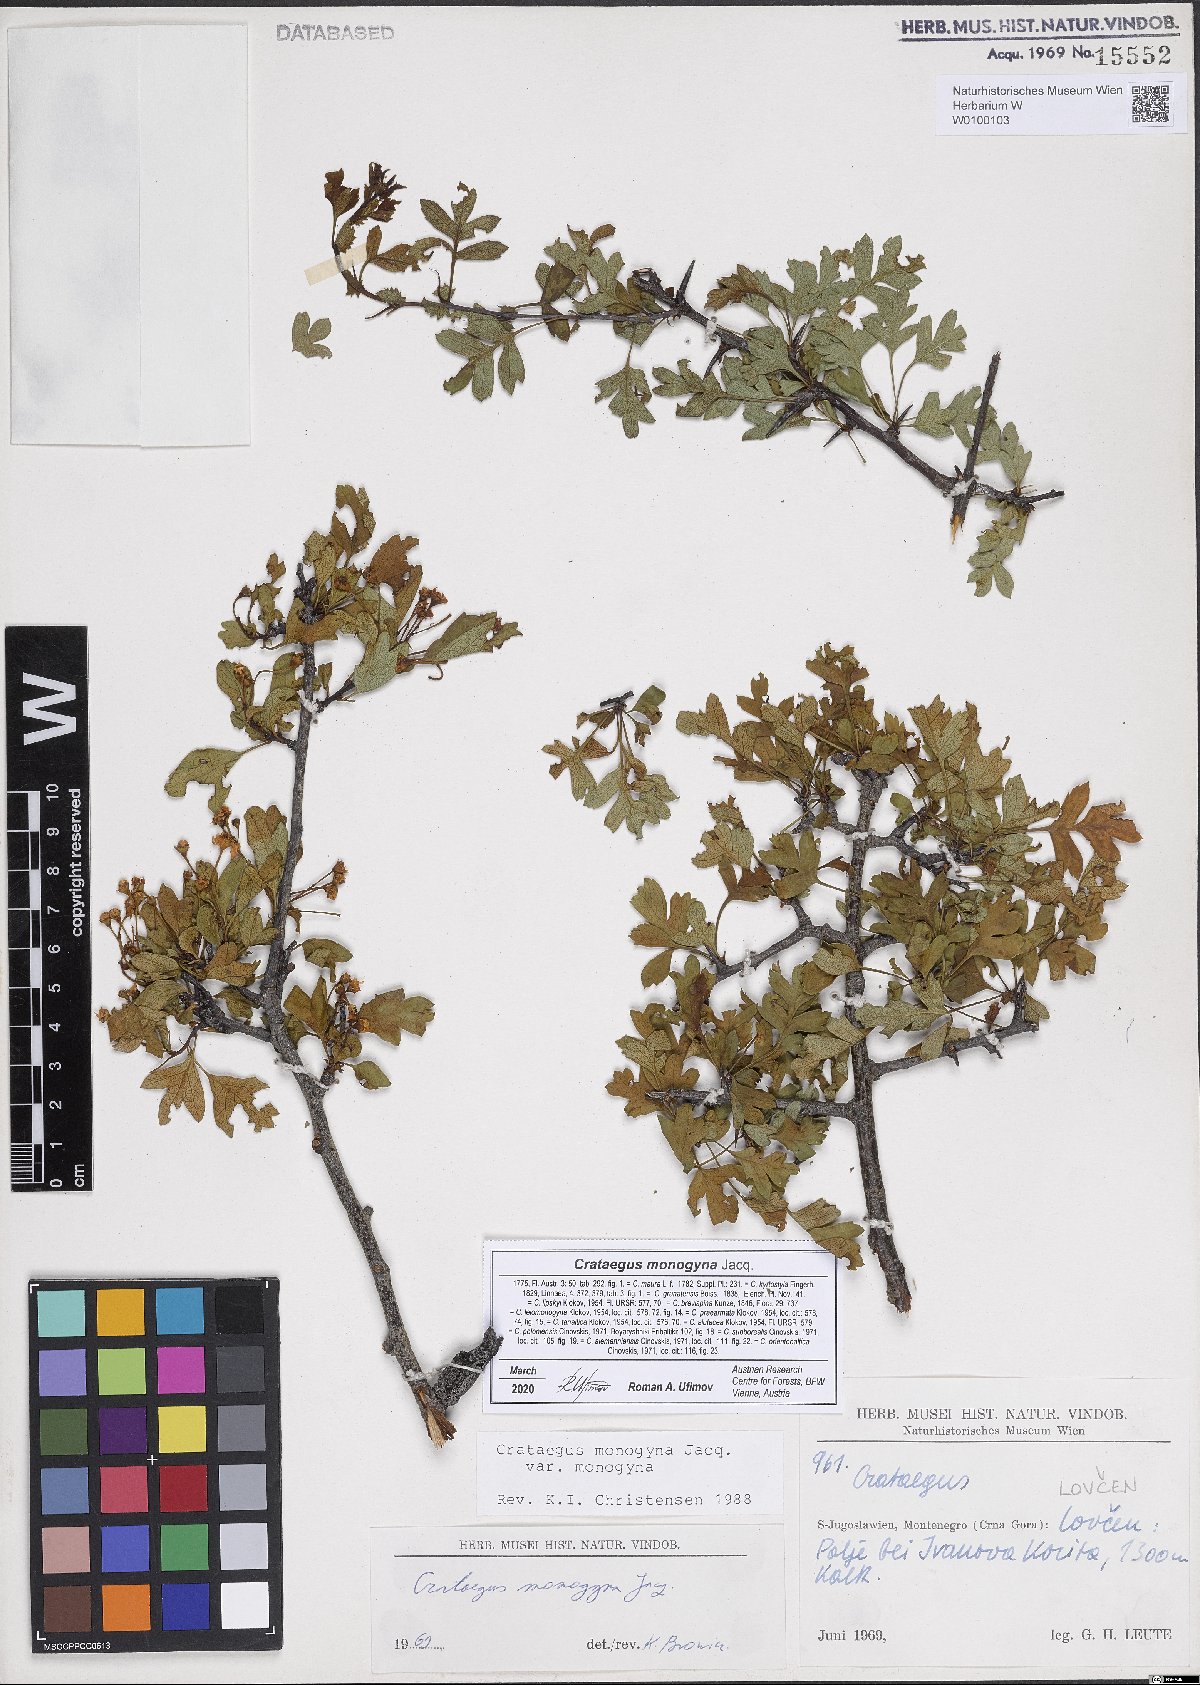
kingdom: Plantae
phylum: Tracheophyta
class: Magnoliopsida
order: Rosales
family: Rosaceae
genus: Crataegus
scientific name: Crataegus monogyna
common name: Hawthorn
